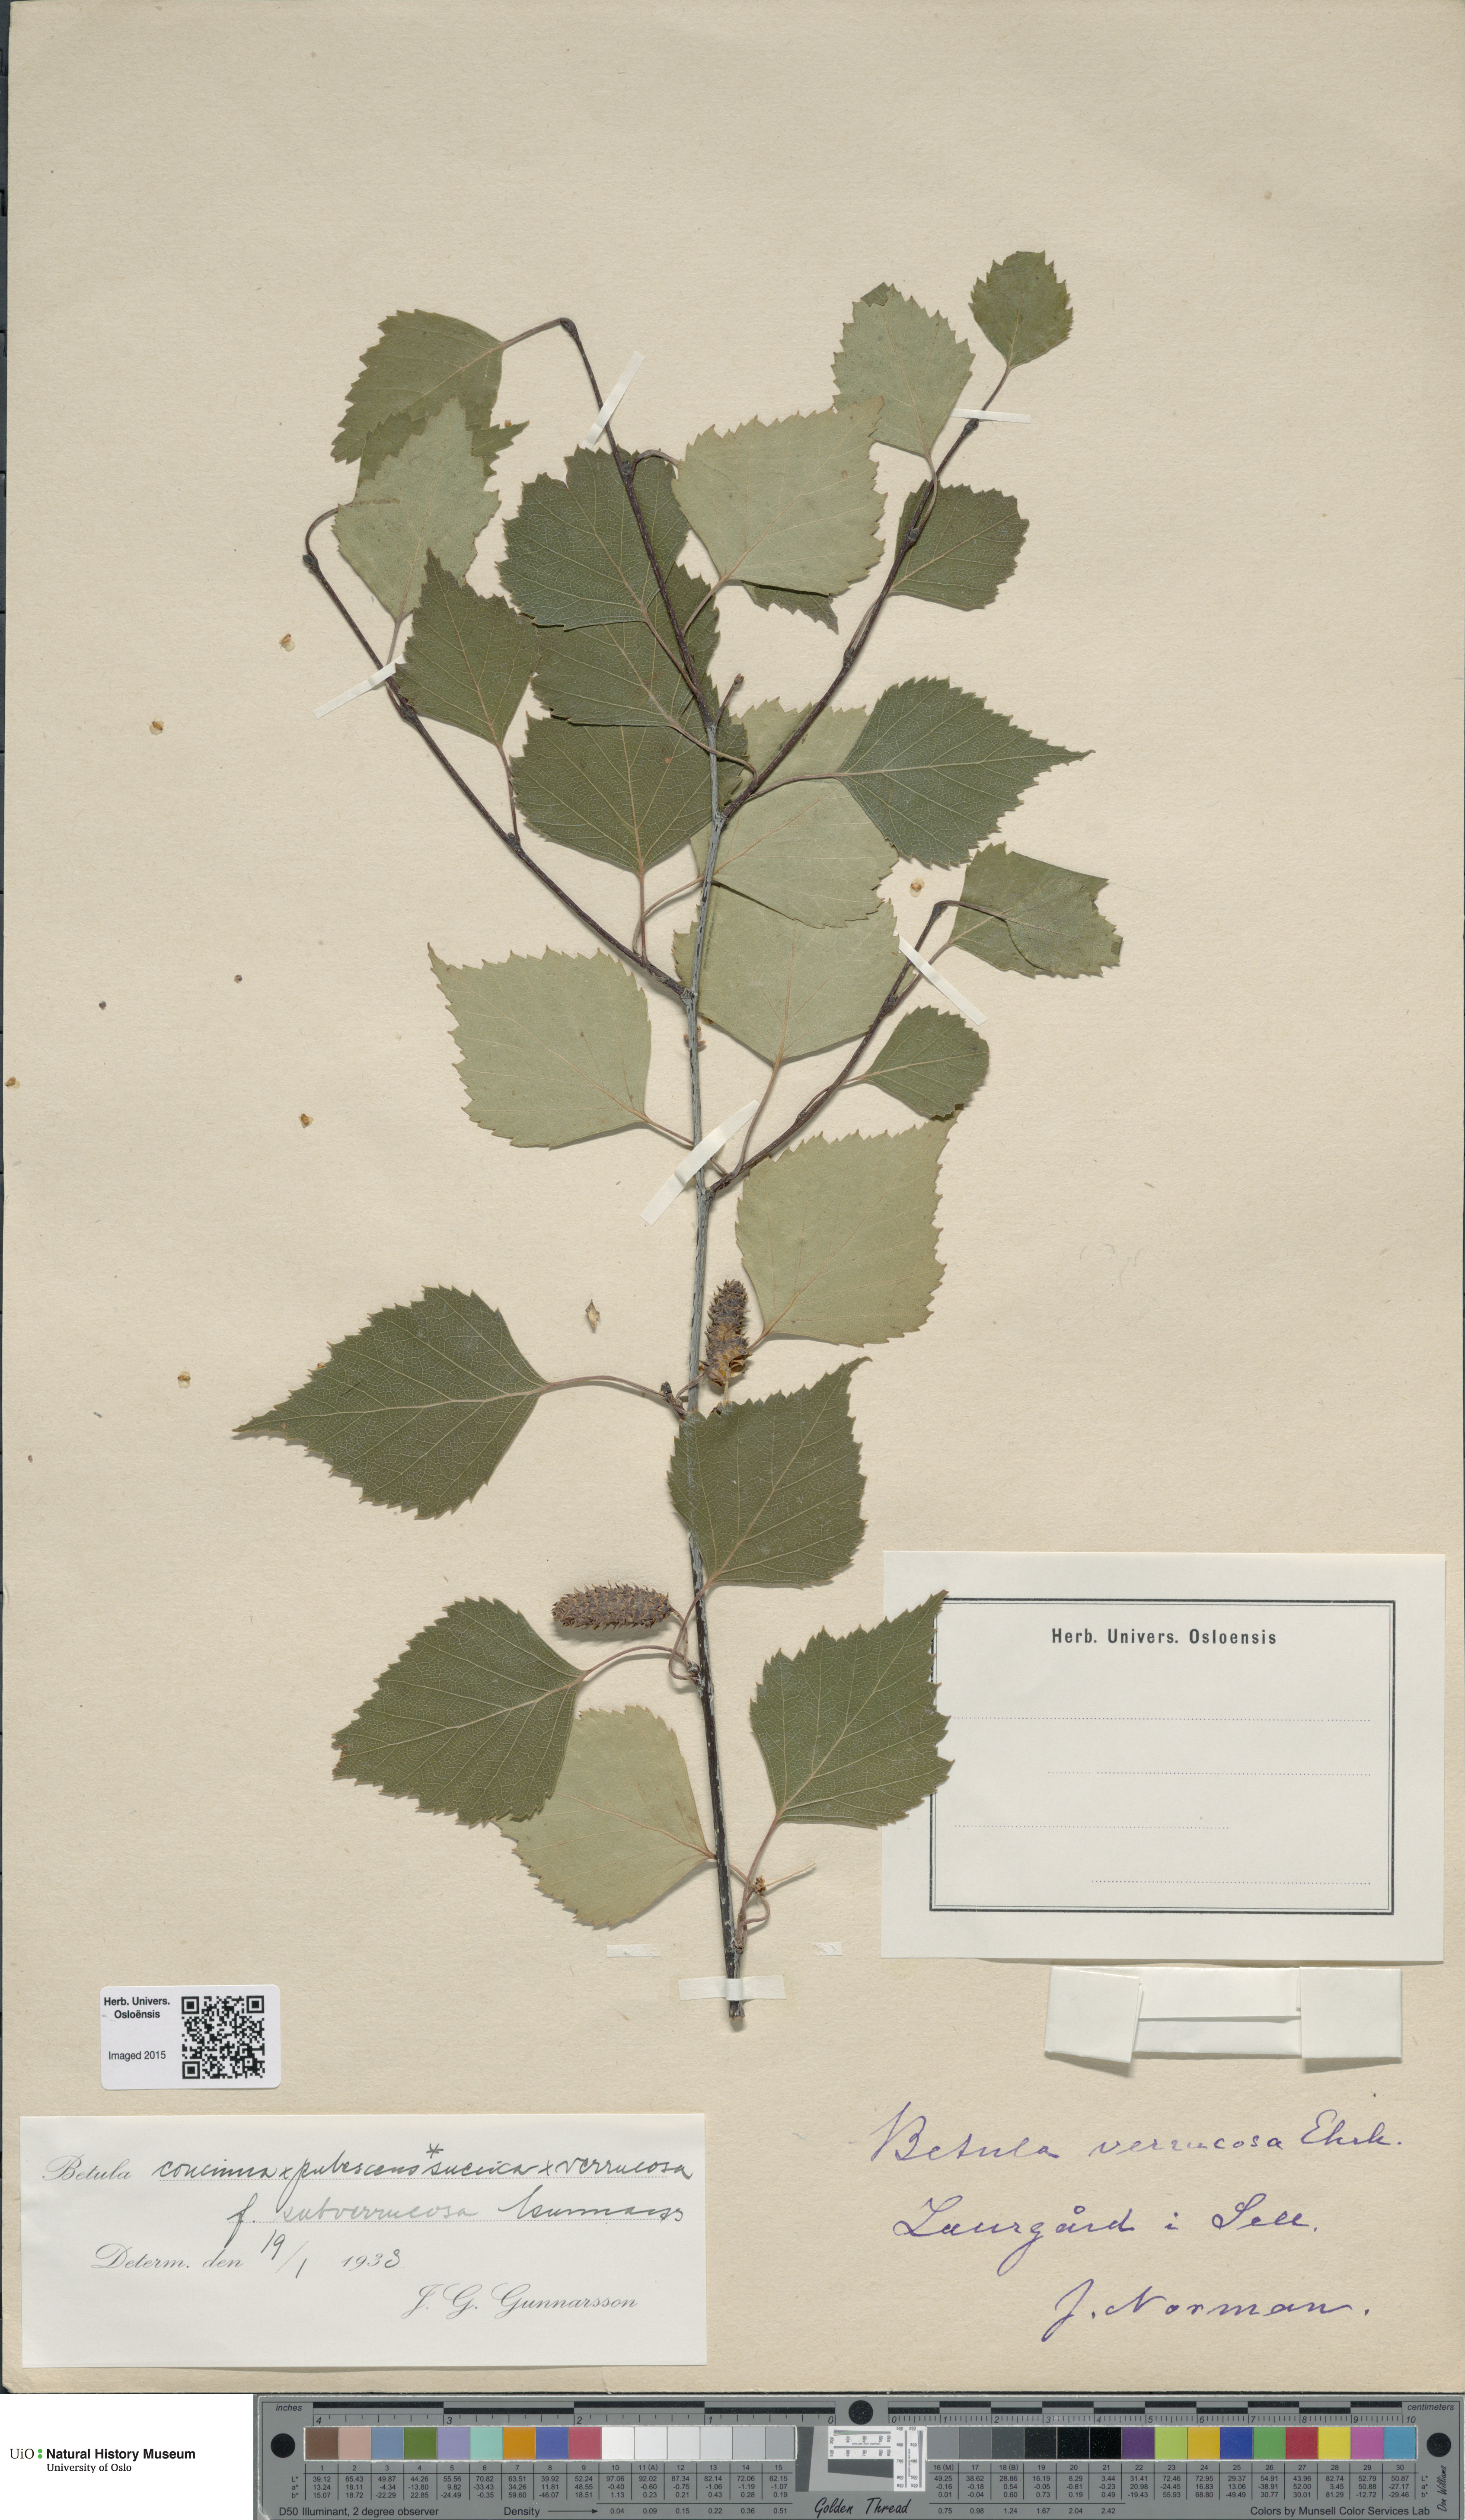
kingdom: Plantae
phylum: Tracheophyta
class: Magnoliopsida
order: Fagales
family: Betulaceae
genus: Betula
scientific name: Betula pubescens
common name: Downy birch
